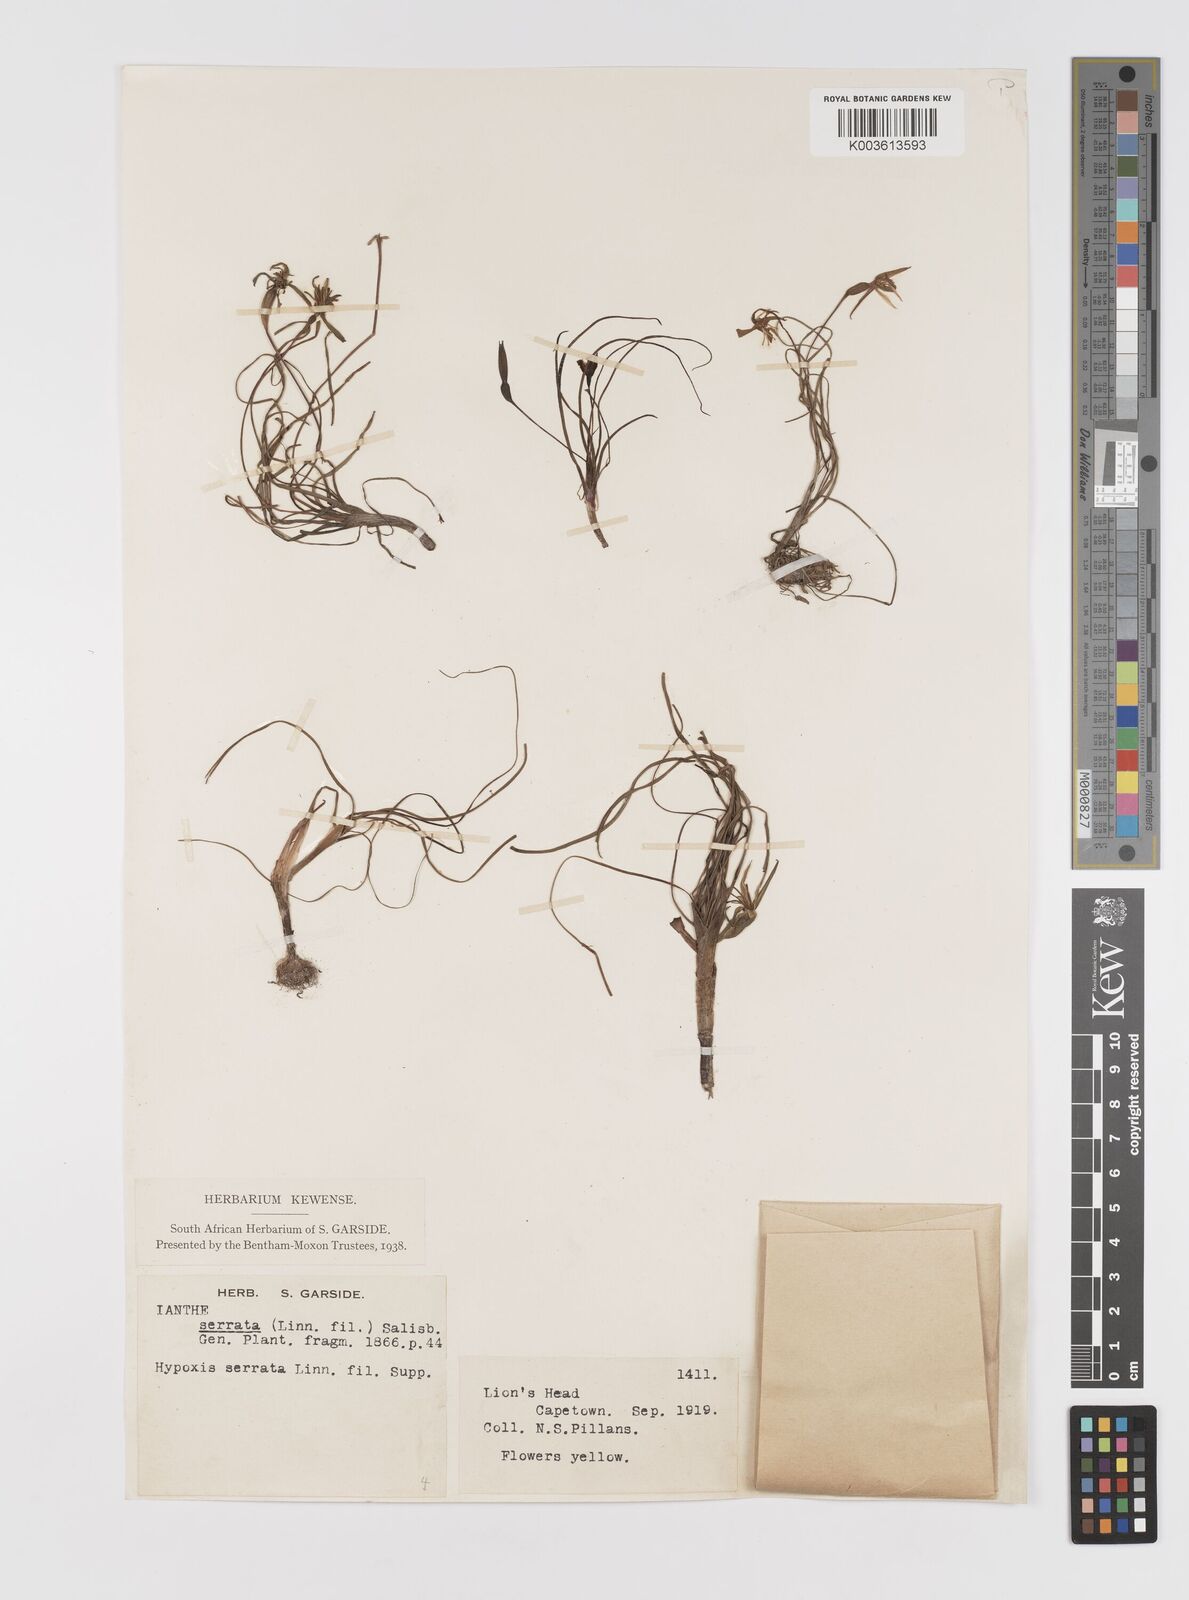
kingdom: Plantae
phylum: Tracheophyta
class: Liliopsida
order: Asparagales
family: Hypoxidaceae
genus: Pauridia
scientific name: Pauridia serrata
